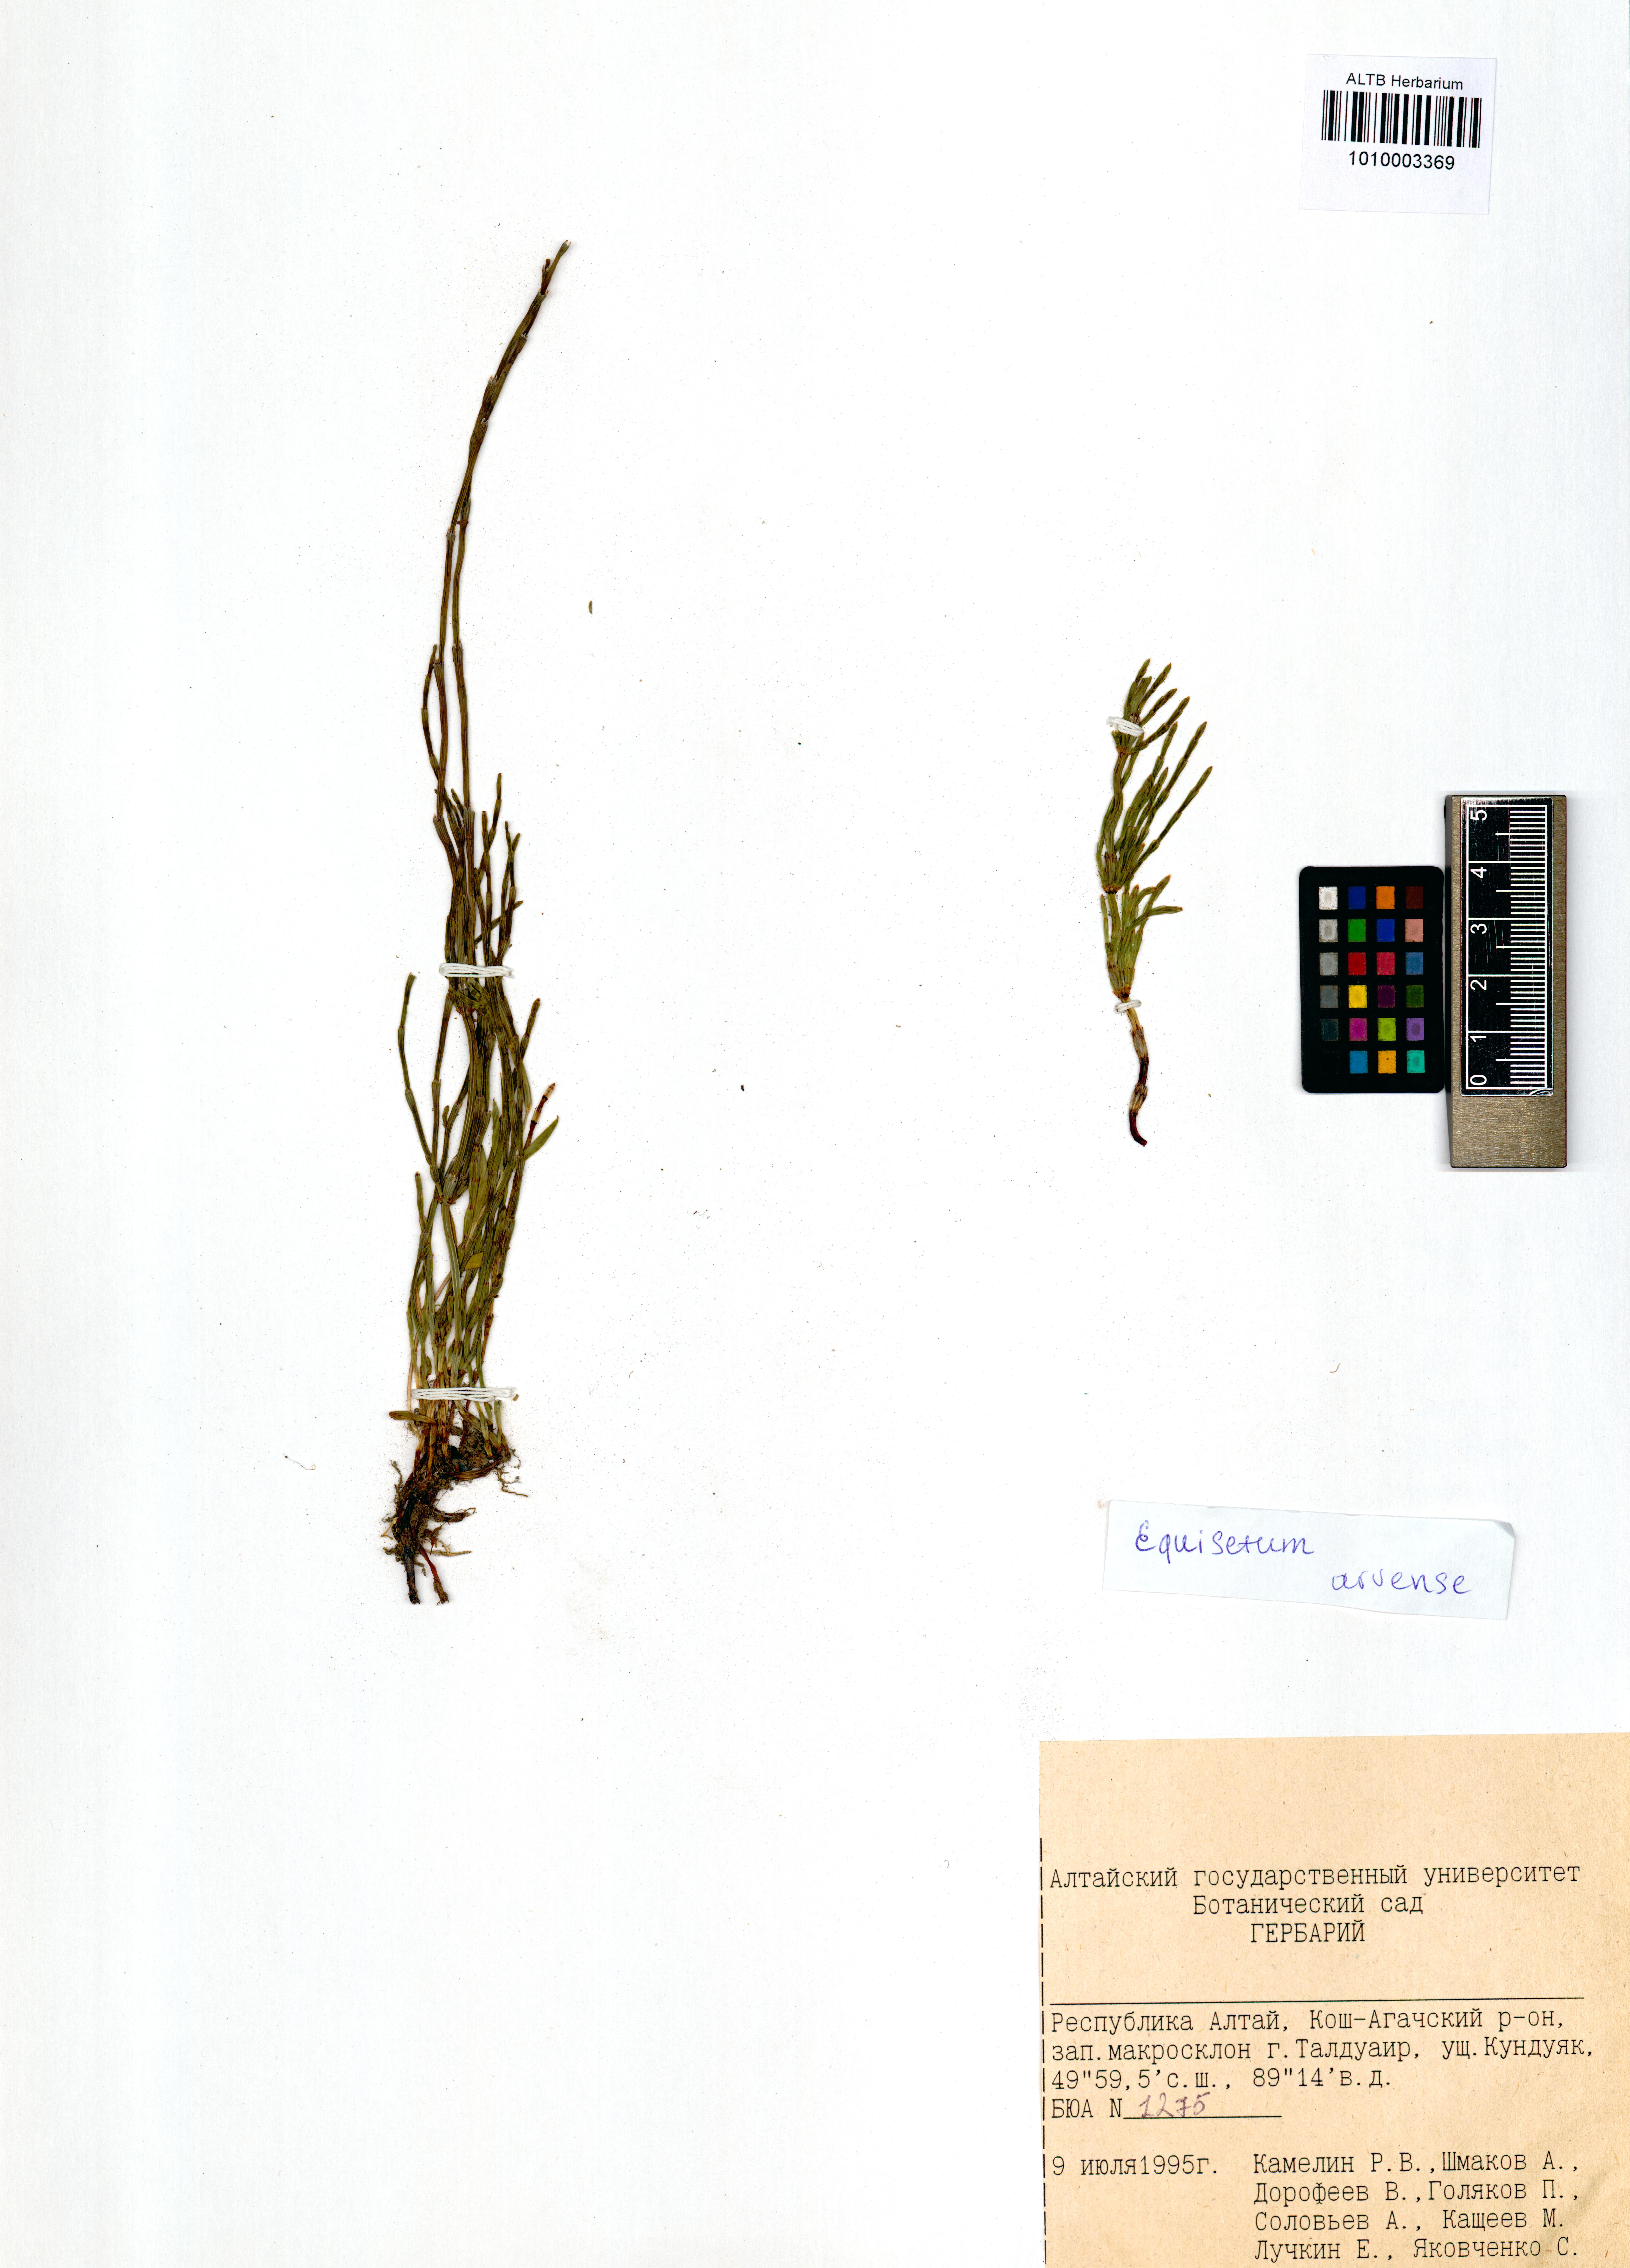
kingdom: Plantae
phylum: Tracheophyta
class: Polypodiopsida
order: Equisetales
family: Equisetaceae
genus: Equisetum
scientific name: Equisetum arvense
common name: Field horsetail
